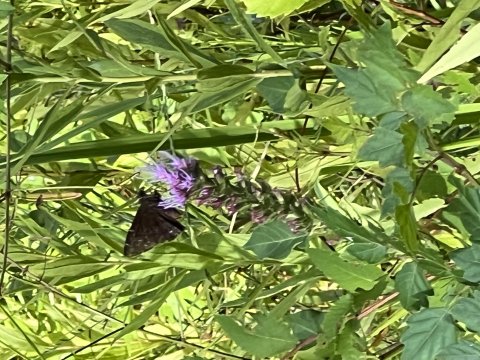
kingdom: Animalia
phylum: Arthropoda
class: Insecta
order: Lepidoptera
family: Hesperiidae
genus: Autochton
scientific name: Autochton
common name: Northern Cloudywing
